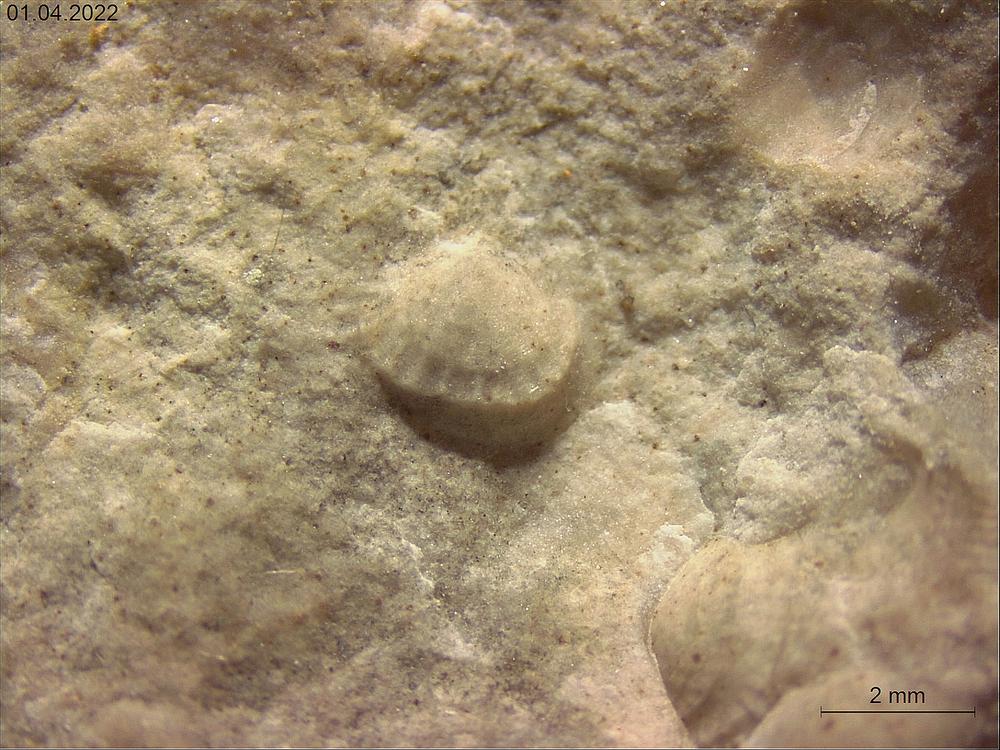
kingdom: Animalia
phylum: Brachiopoda
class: Rhynchonellata
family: Carinatinidae
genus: Spirigerina
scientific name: Spirigerina undifera
